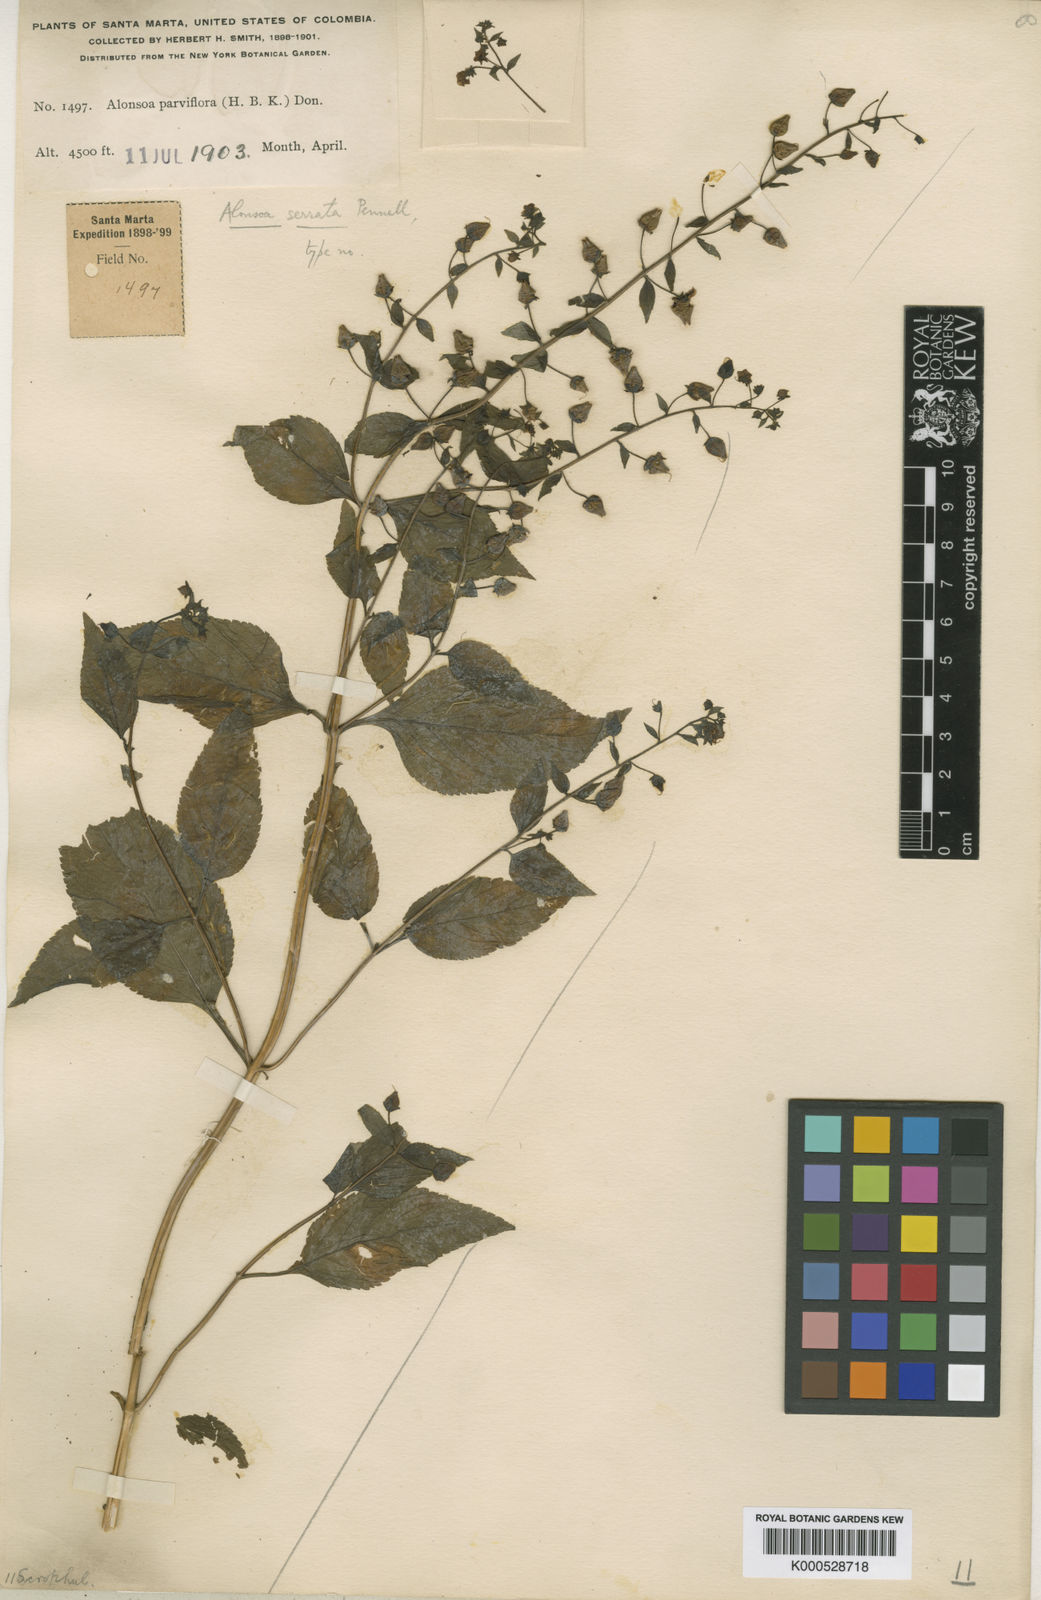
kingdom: Plantae
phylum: Tracheophyta
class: Magnoliopsida
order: Lamiales
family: Scrophulariaceae
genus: Alonsoa
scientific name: Alonsoa serrata
